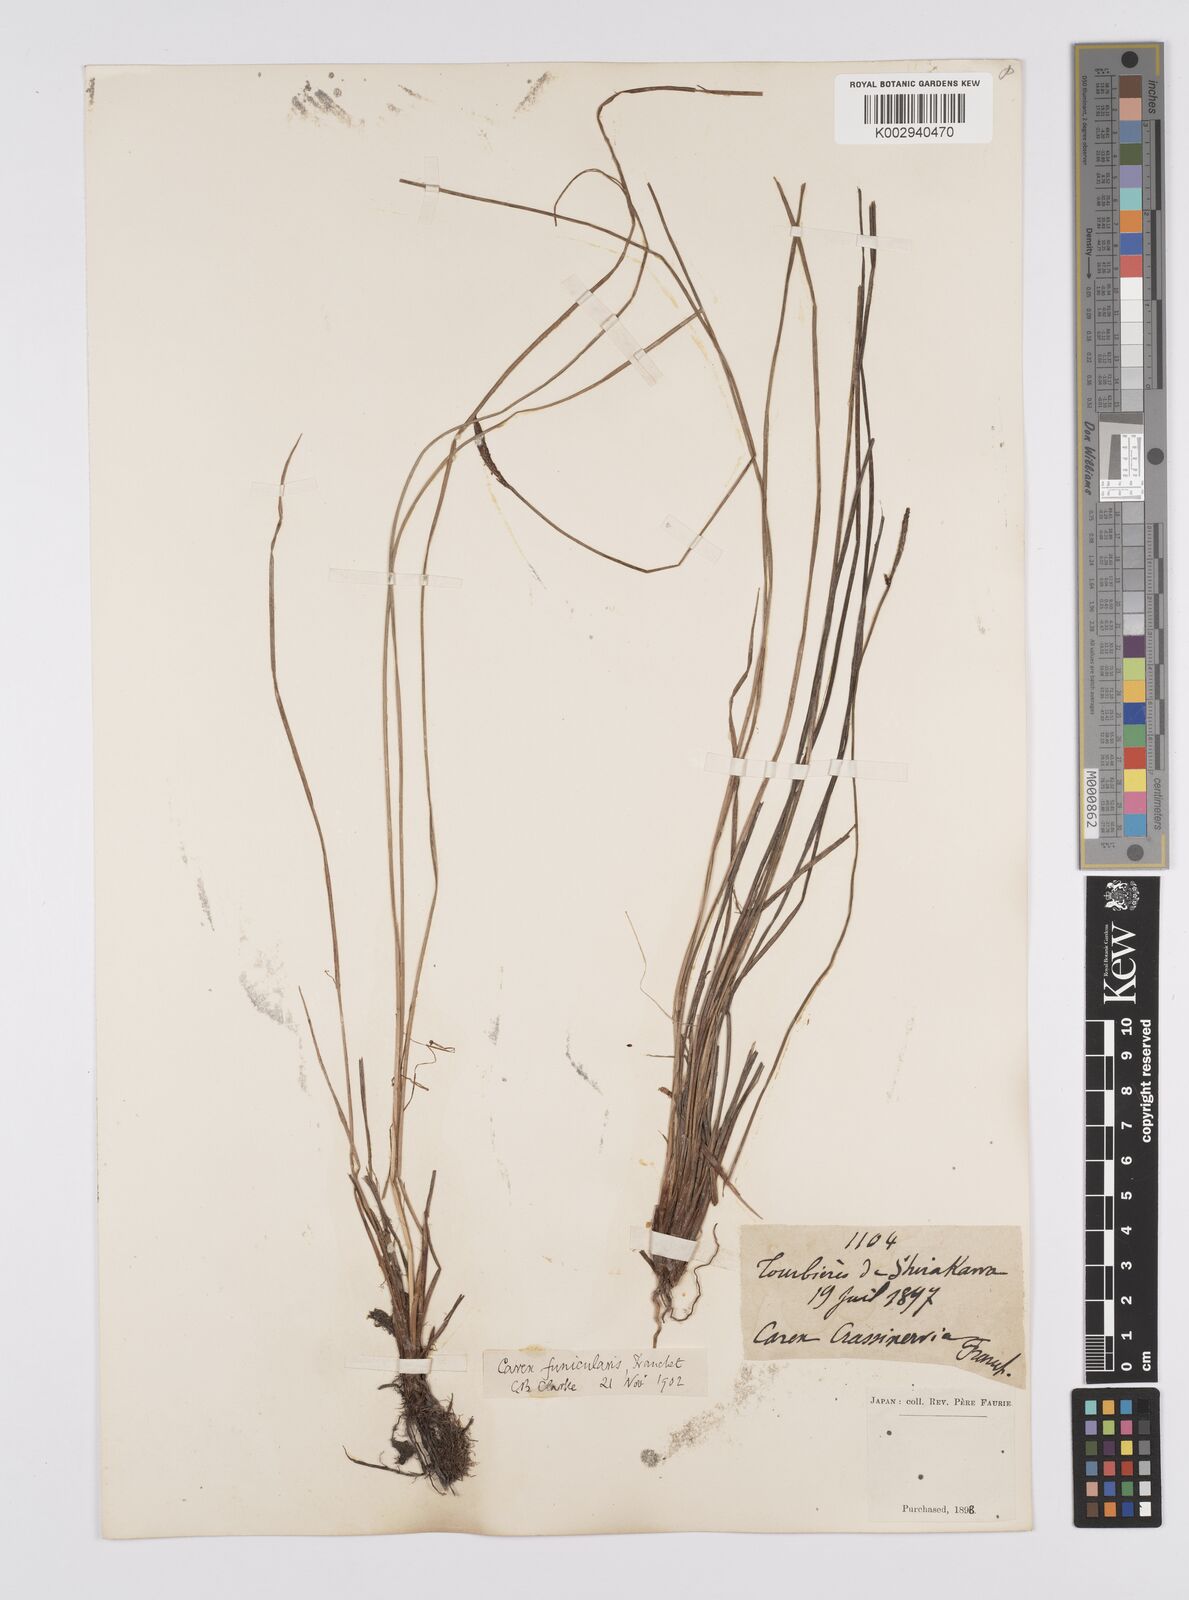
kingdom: Plantae
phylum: Tracheophyta
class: Liliopsida
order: Poales
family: Cyperaceae
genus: Carex
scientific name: Carex meyeriana
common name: Wula sedge
